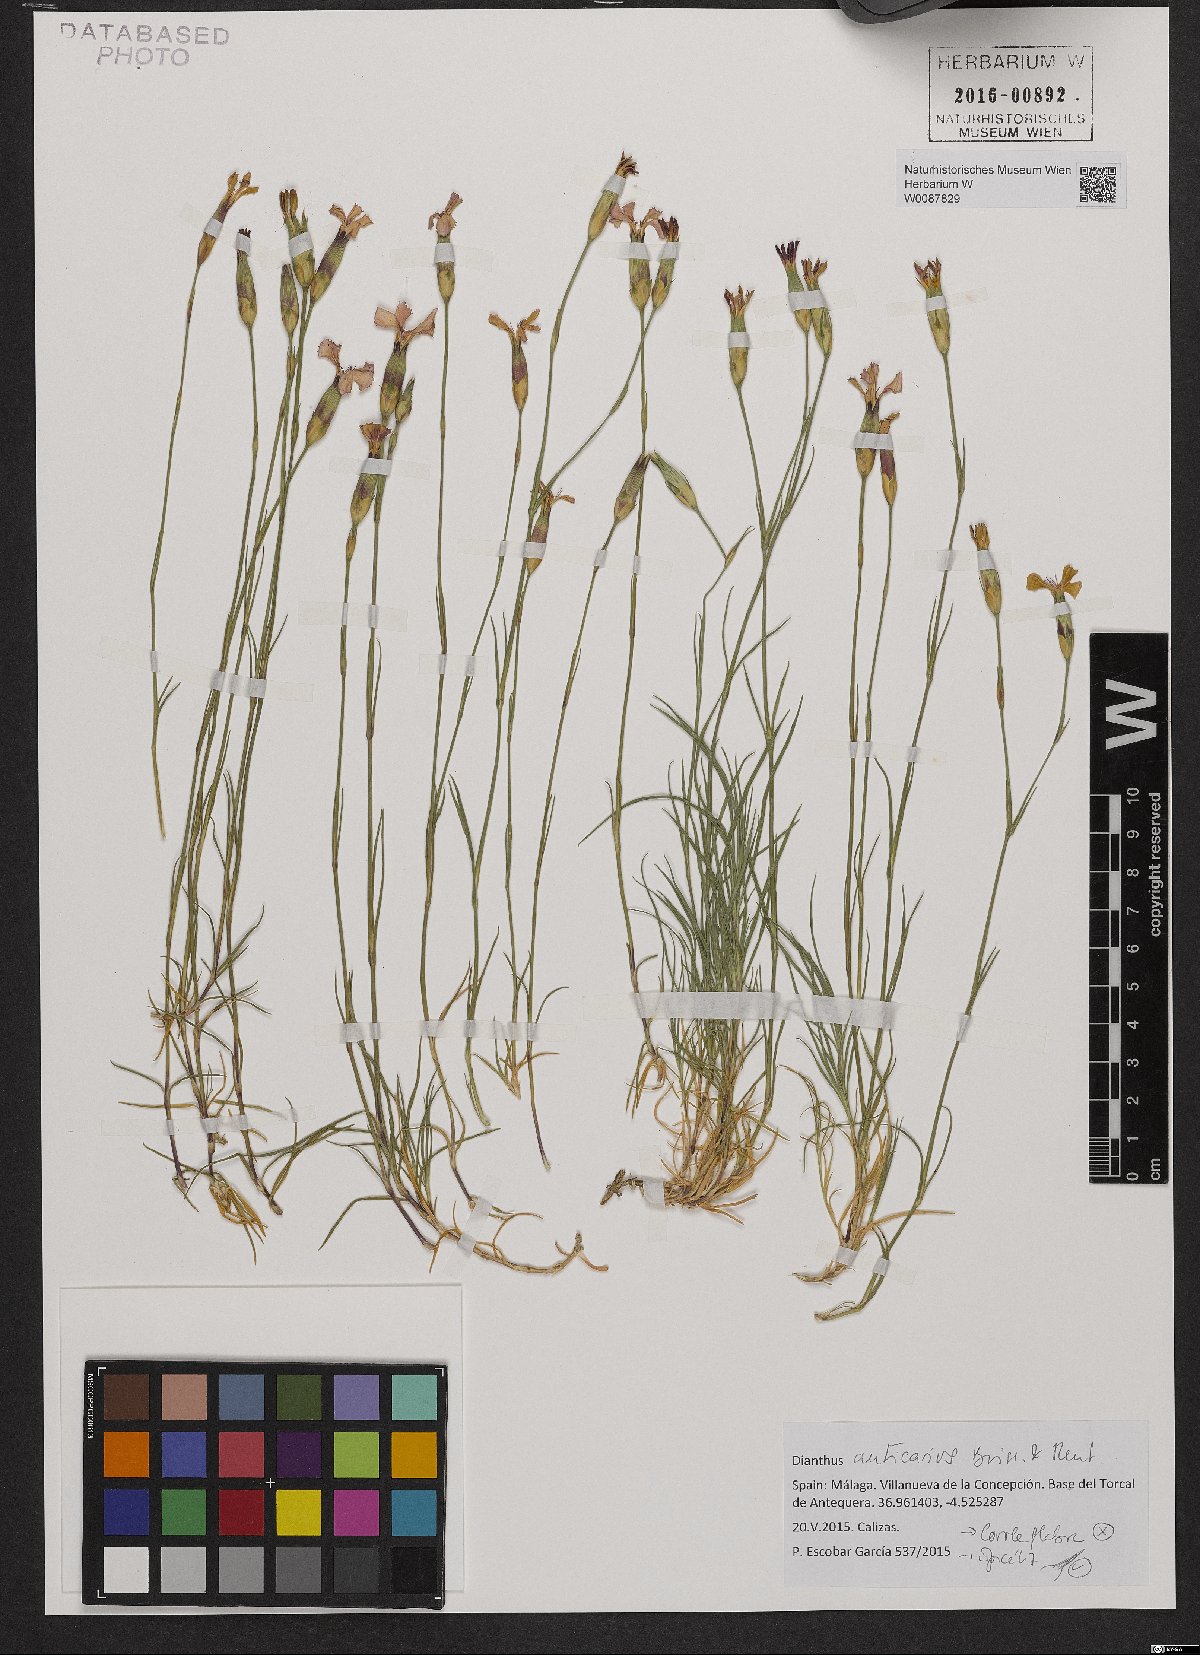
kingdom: Plantae
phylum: Tracheophyta
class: Magnoliopsida
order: Caryophyllales
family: Caryophyllaceae
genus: Dianthus
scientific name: Dianthus anticarius
